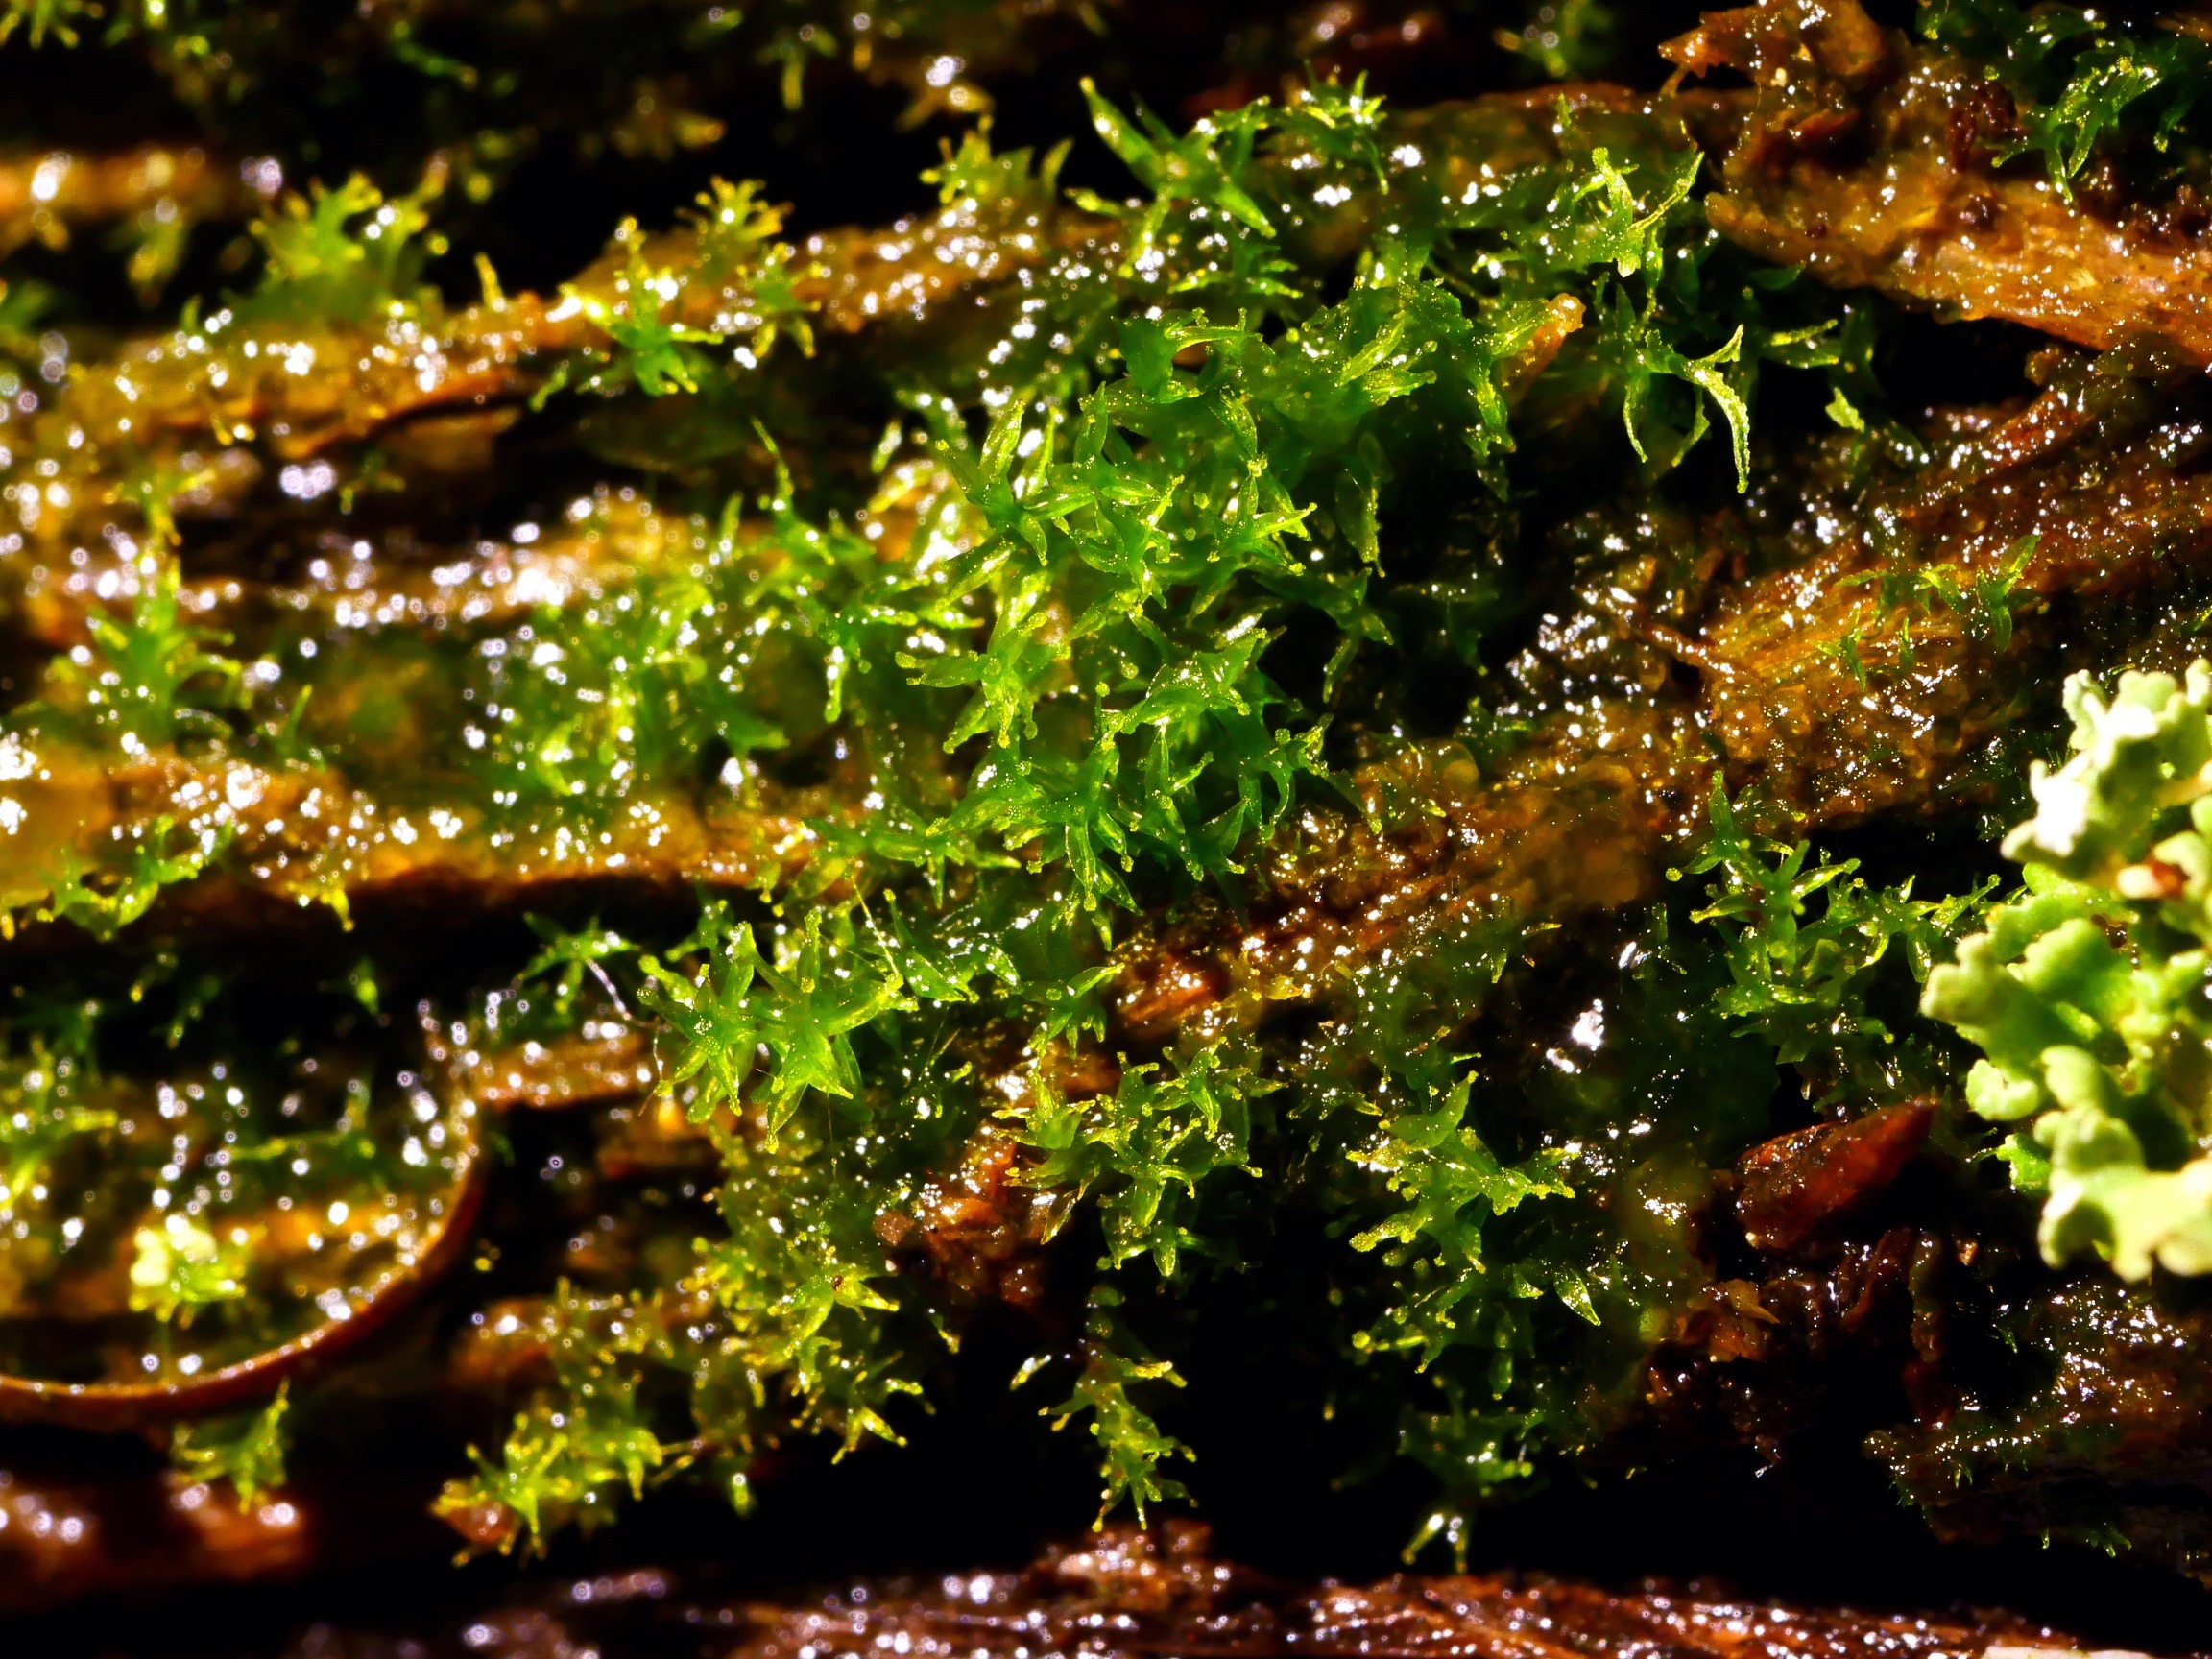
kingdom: Plantae
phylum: Bryophyta
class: Bryopsida
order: Pottiales
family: Pottiaceae
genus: Leptodontium
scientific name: Leptodontium gemmascens
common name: Brod-smaltand
